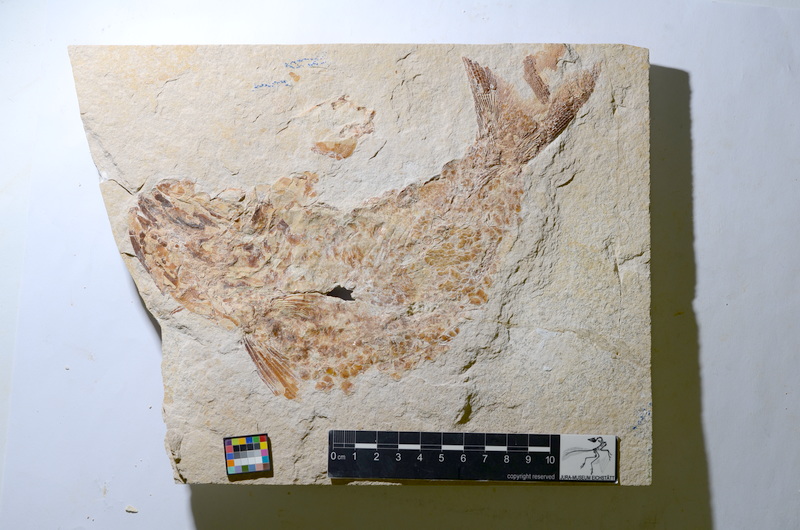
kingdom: Animalia
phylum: Chordata
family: Eurycormidae
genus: Eurycormus
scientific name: Eurycormus
